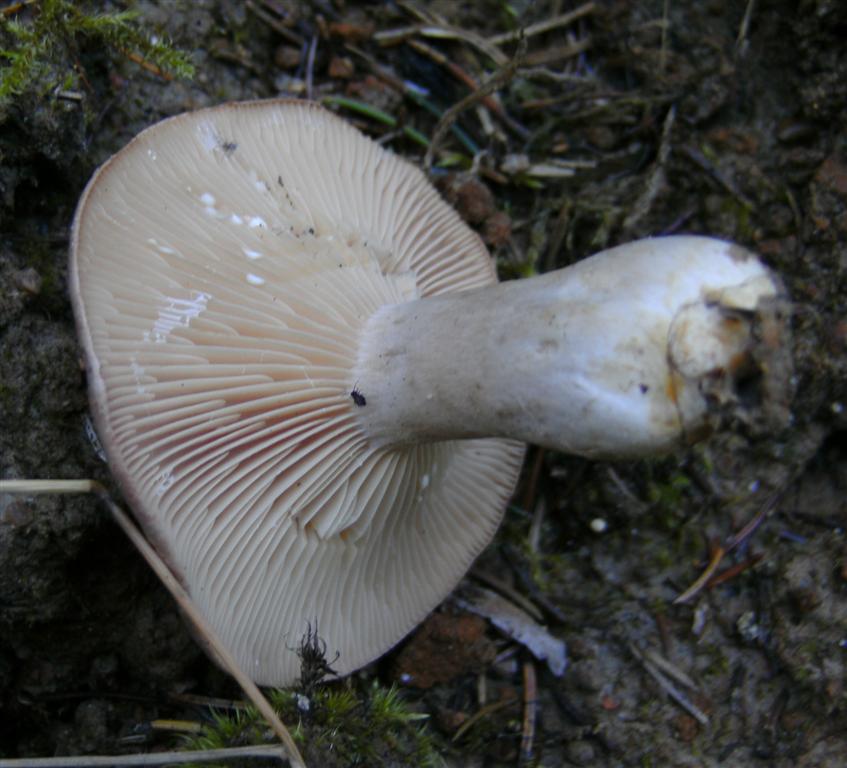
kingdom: Fungi
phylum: Basidiomycota
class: Agaricomycetes
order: Russulales
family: Russulaceae
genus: Lactarius
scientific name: Lactarius flexuosus
